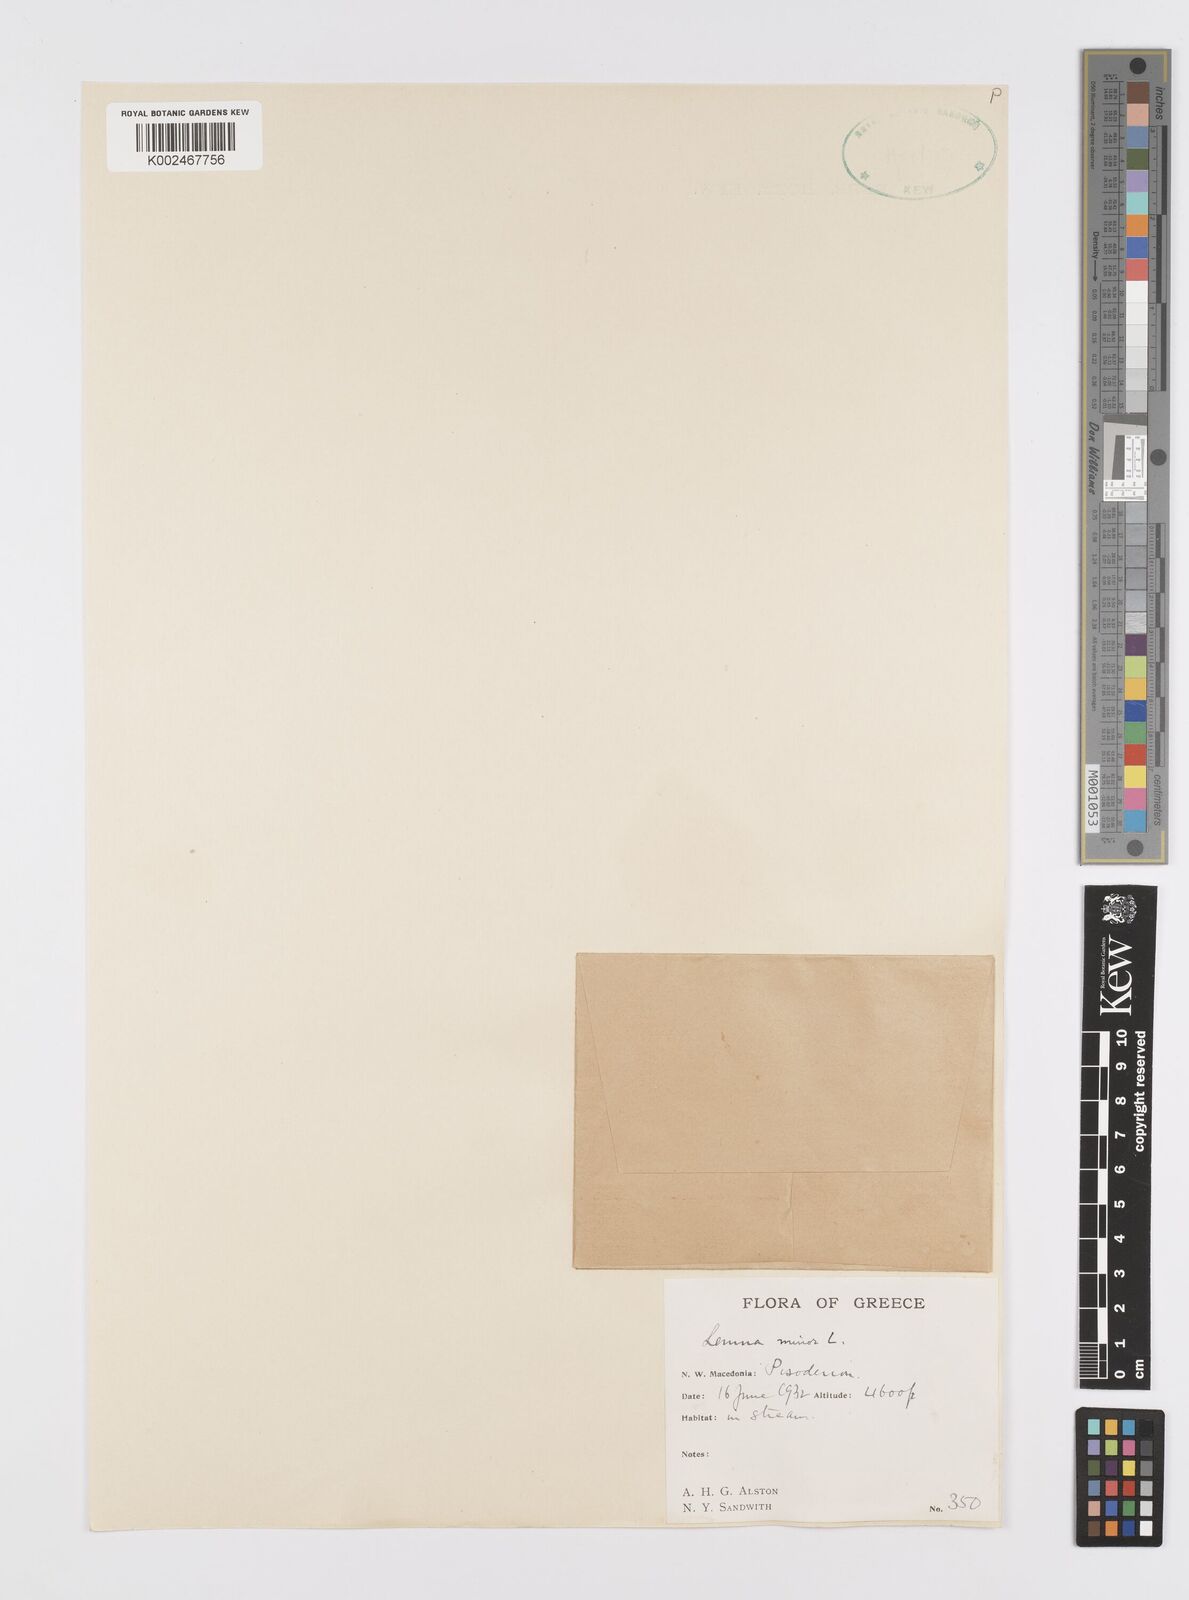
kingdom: Plantae
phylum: Tracheophyta
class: Liliopsida
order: Alismatales
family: Araceae
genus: Lemna
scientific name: Lemna minor
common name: Common duckweed
